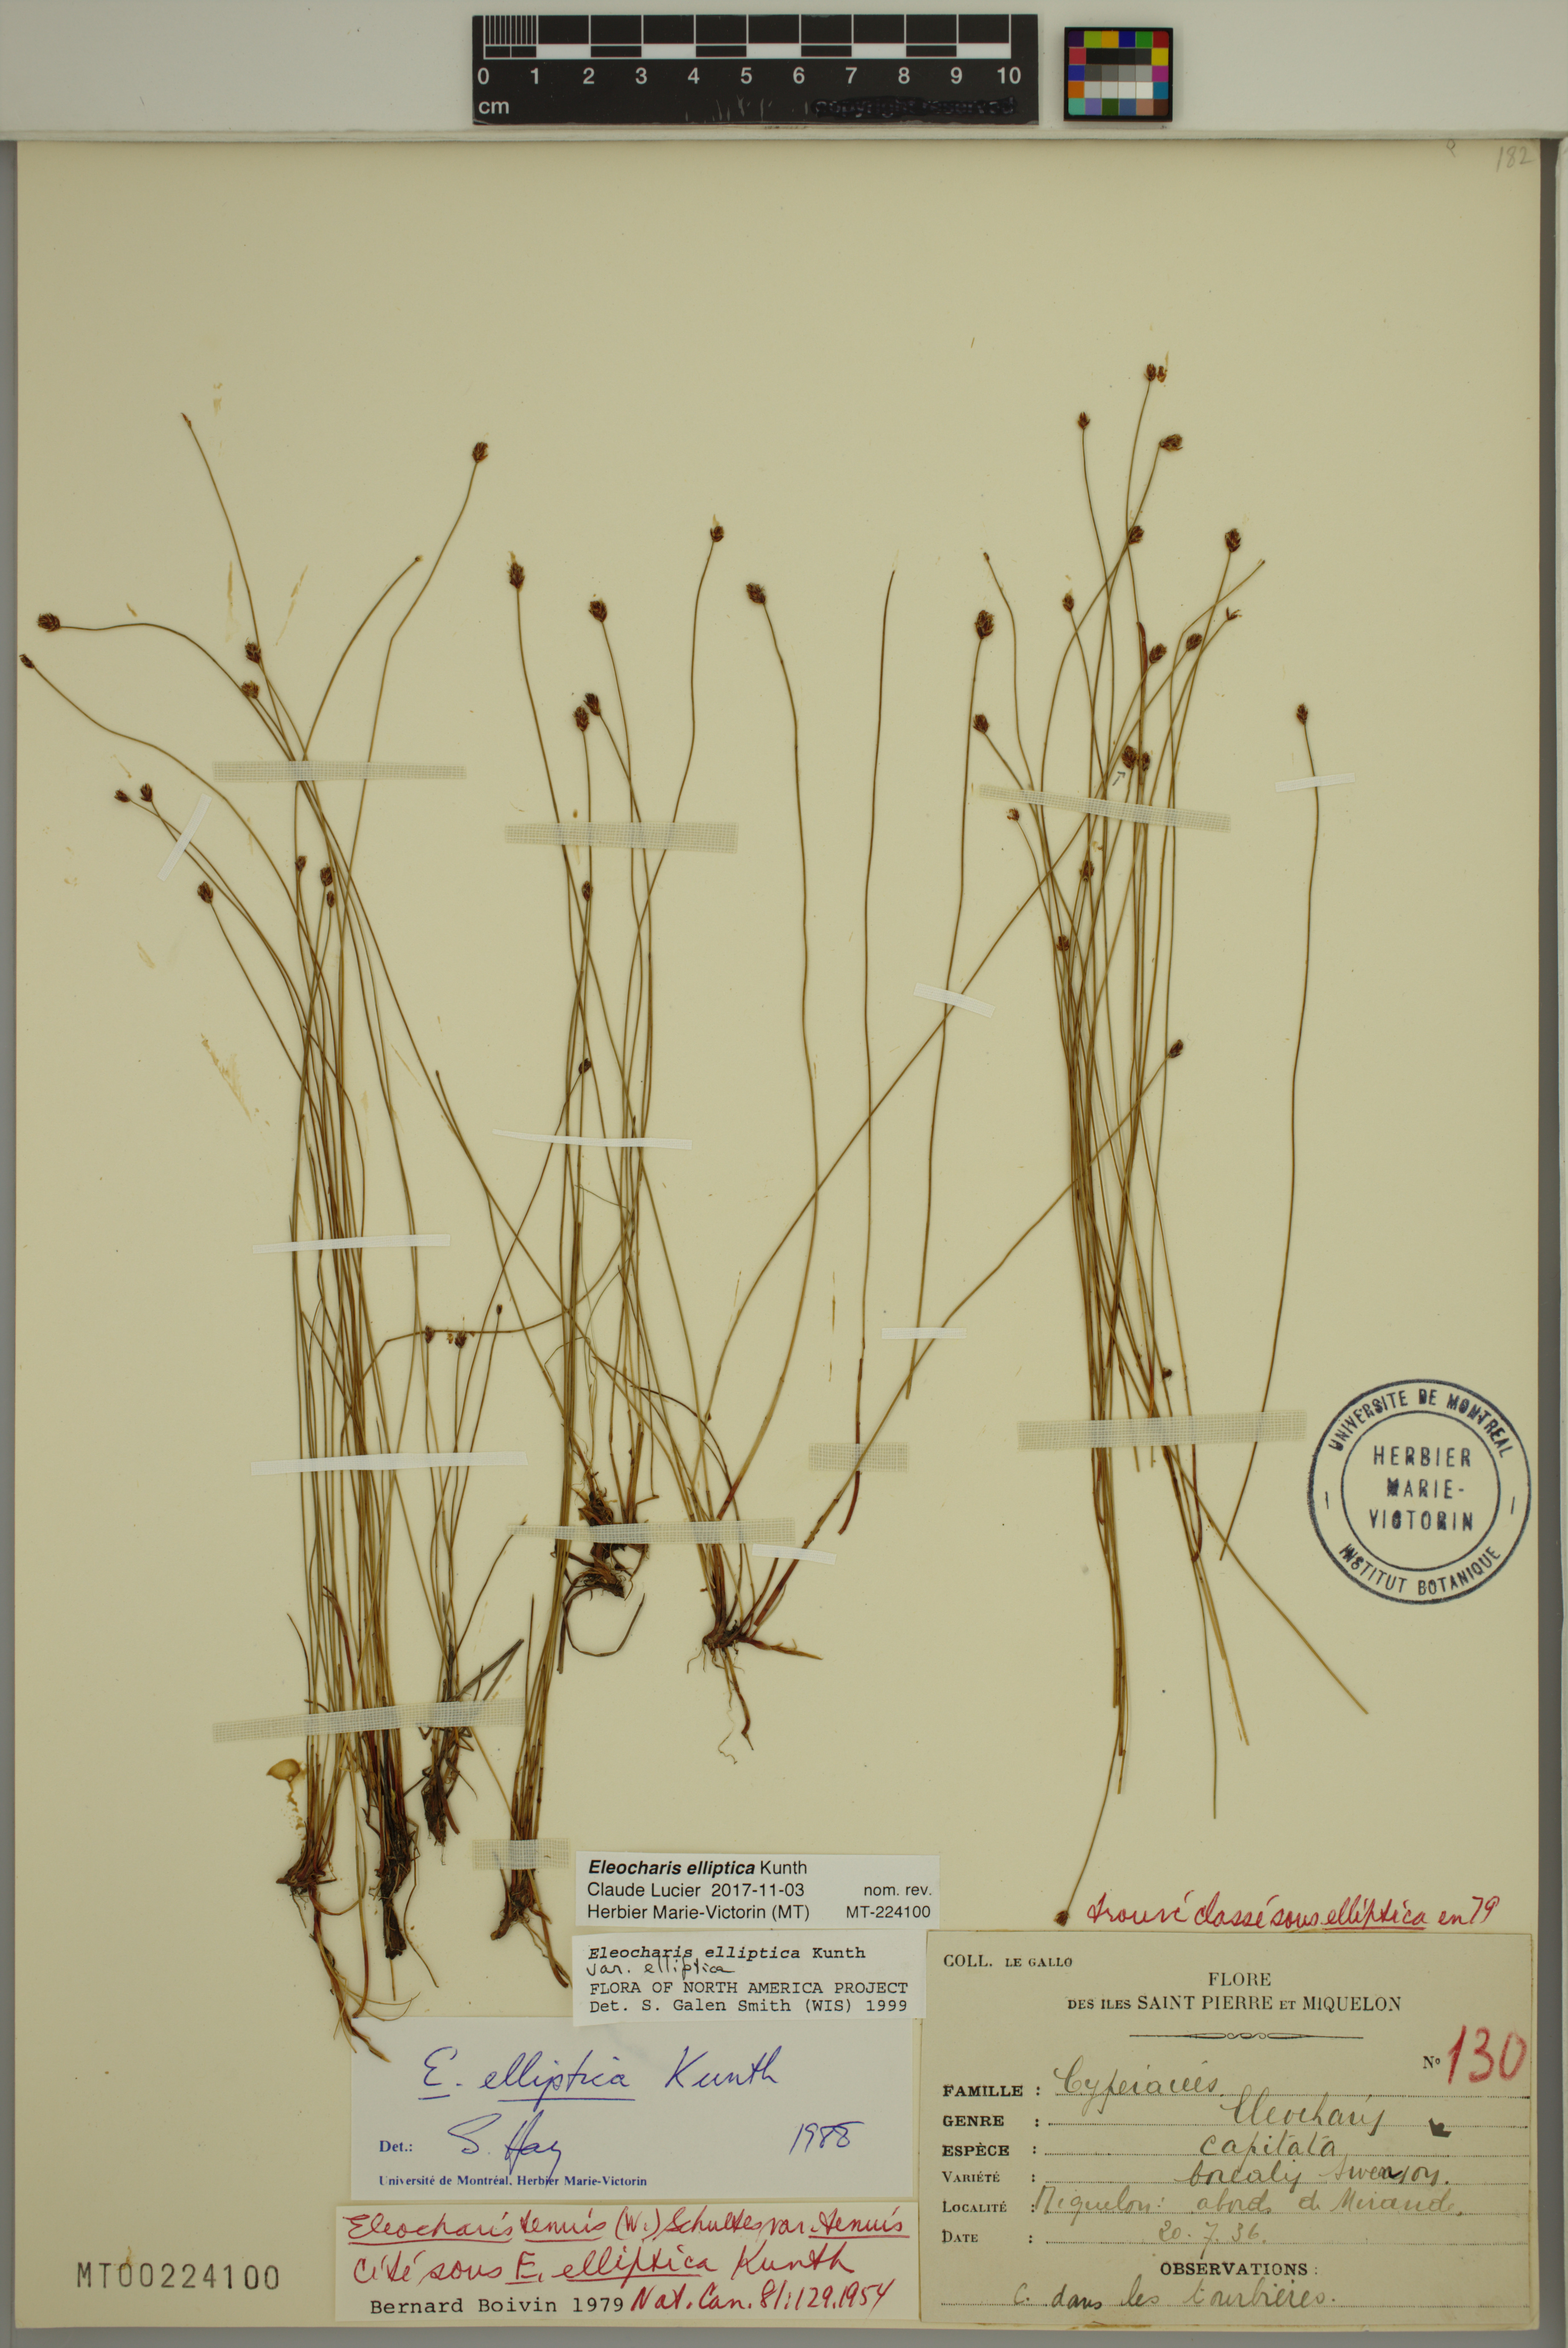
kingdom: Plantae
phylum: Tracheophyta
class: Liliopsida
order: Poales
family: Cyperaceae
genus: Eleocharis
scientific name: Eleocharis elliptica
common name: Capitate spikerush
